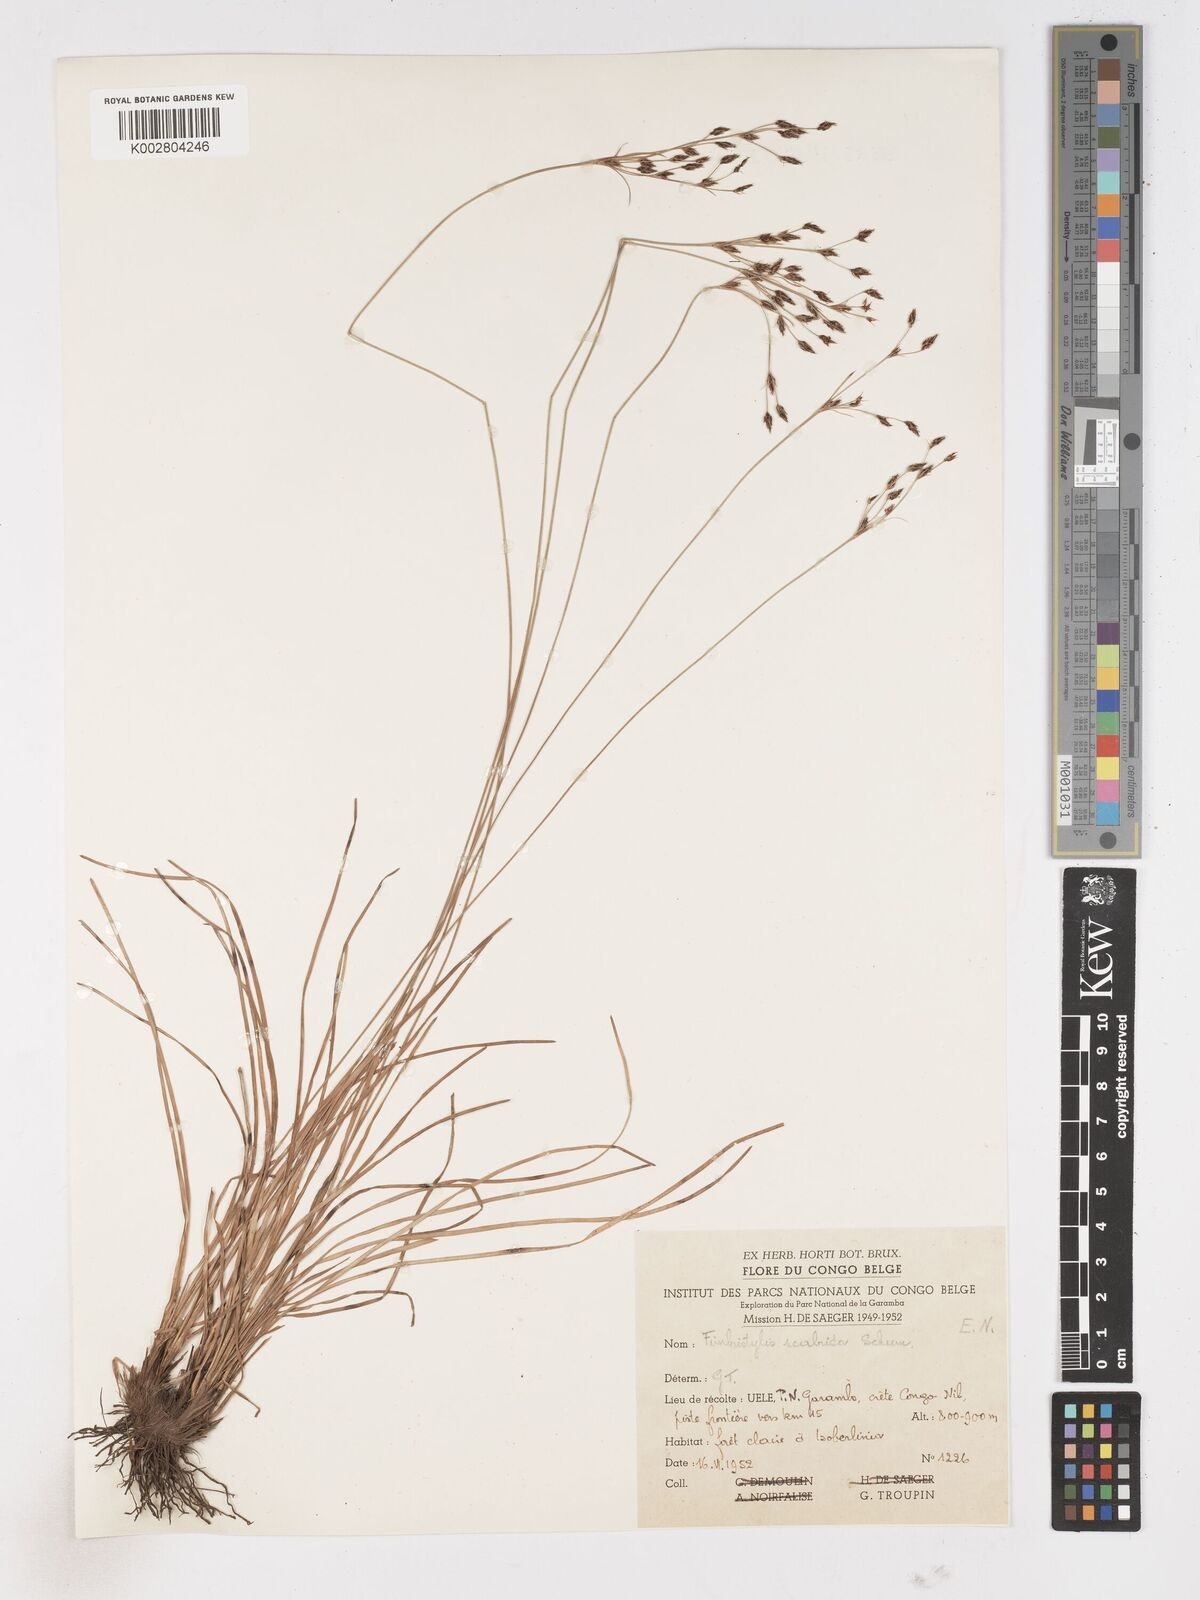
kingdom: Plantae
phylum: Tracheophyta
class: Liliopsida
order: Poales
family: Cyperaceae
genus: Fimbristylis
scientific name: Fimbristylis scabrida
